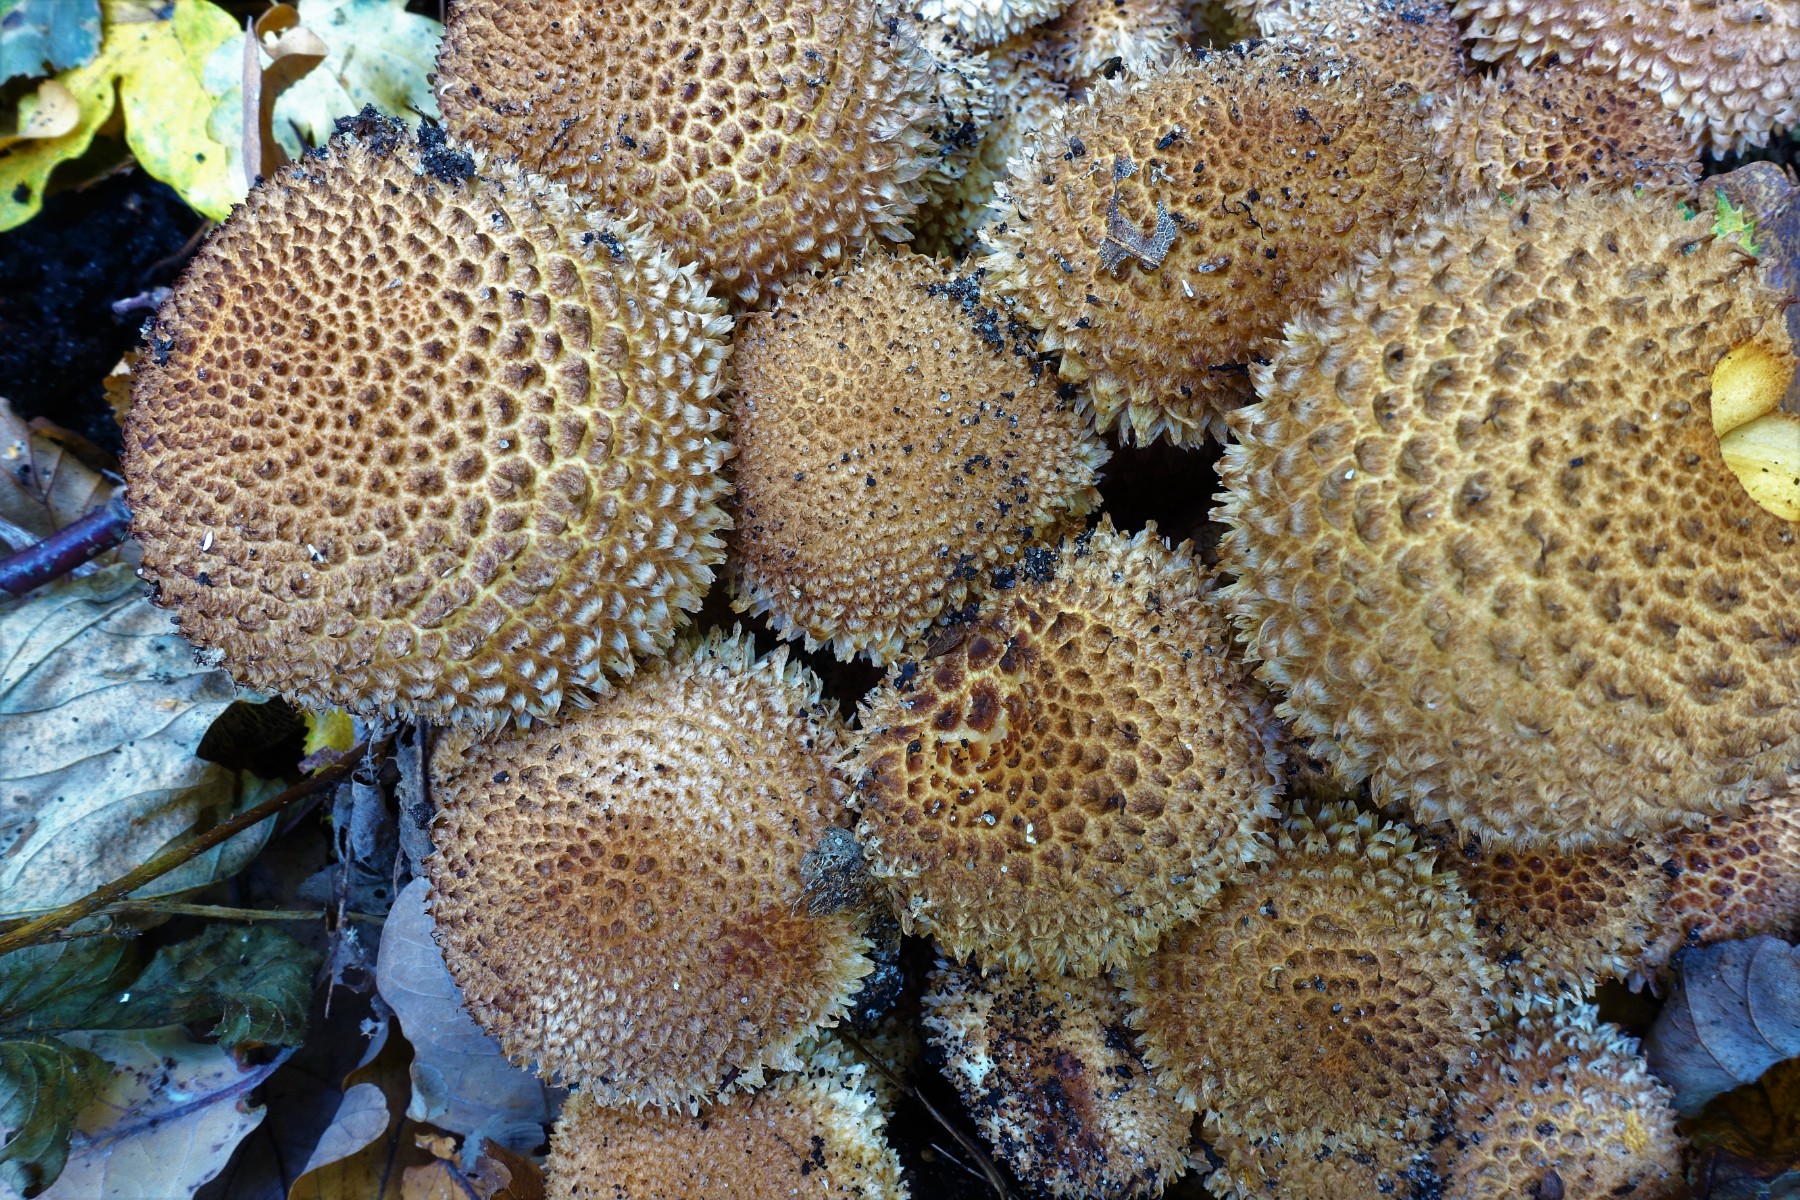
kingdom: Fungi
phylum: Basidiomycota
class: Agaricomycetes
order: Agaricales
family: Strophariaceae
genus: Pholiota
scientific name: Pholiota squarrosa
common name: krumskællet skælhat
